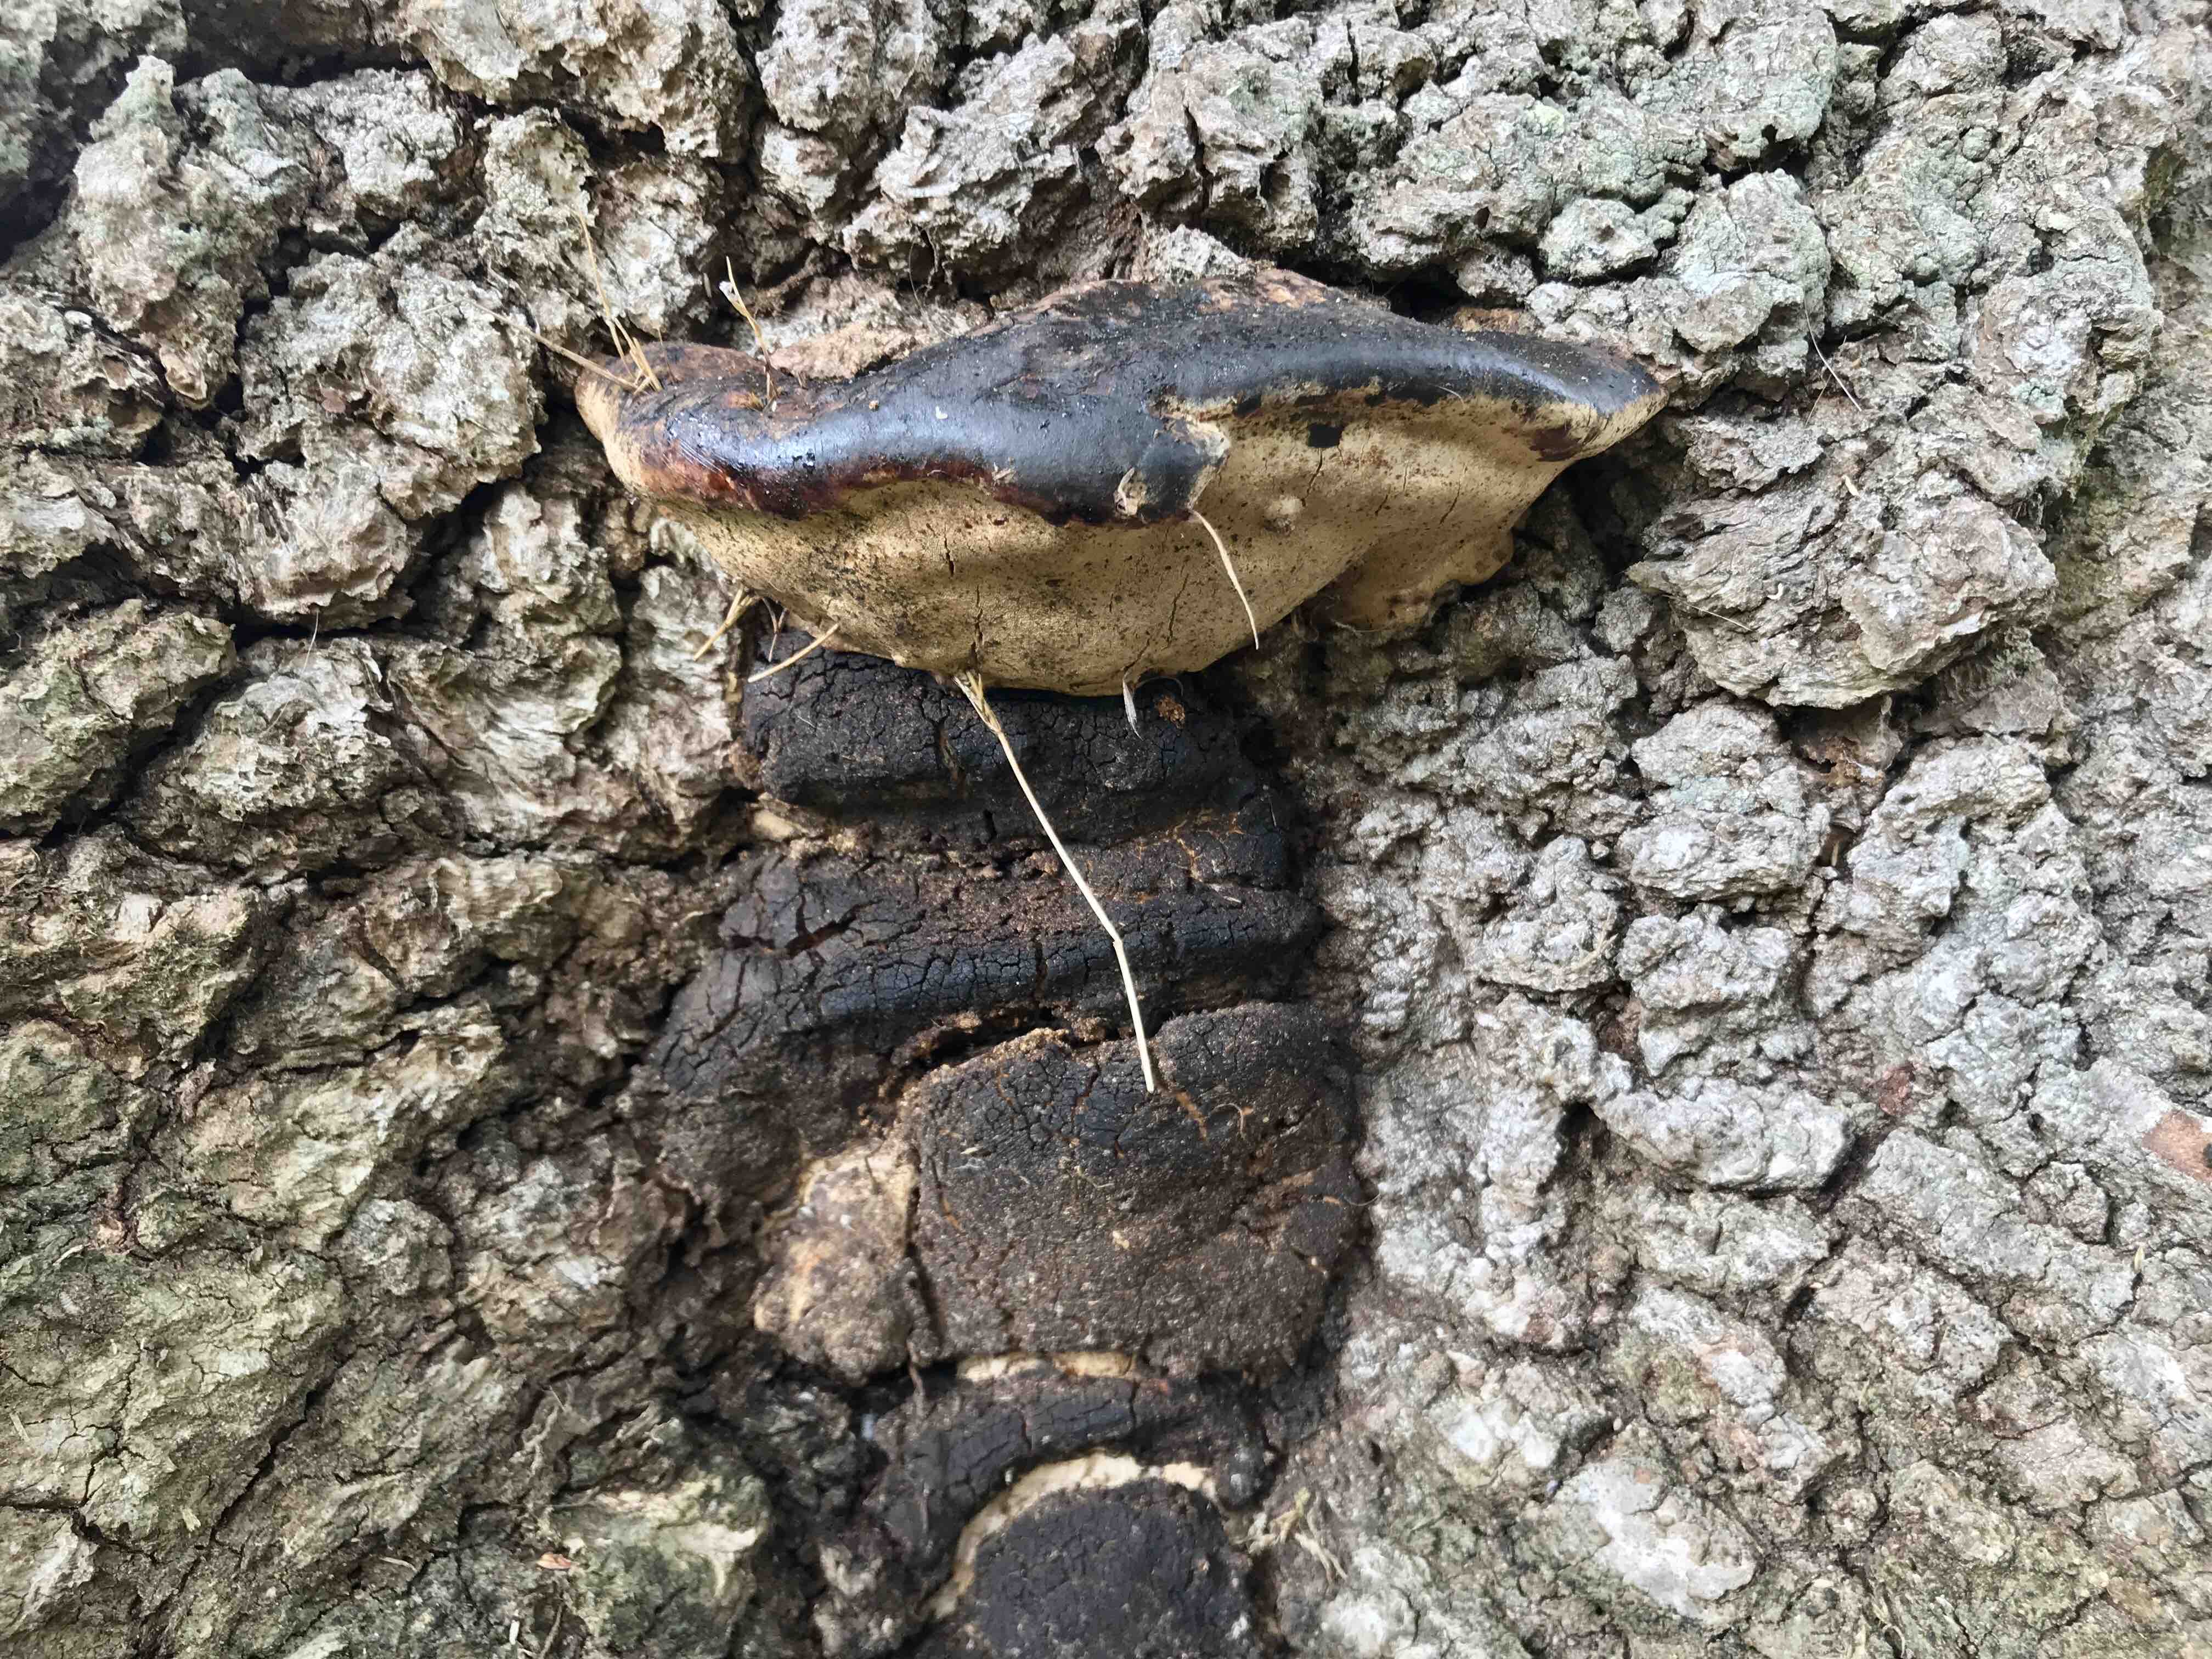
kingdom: Fungi
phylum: Basidiomycota
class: Agaricomycetes
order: Polyporales
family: Polyporaceae
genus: Vanderbylia
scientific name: Vanderbylia fraxinea
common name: stor kanelporesvamp
